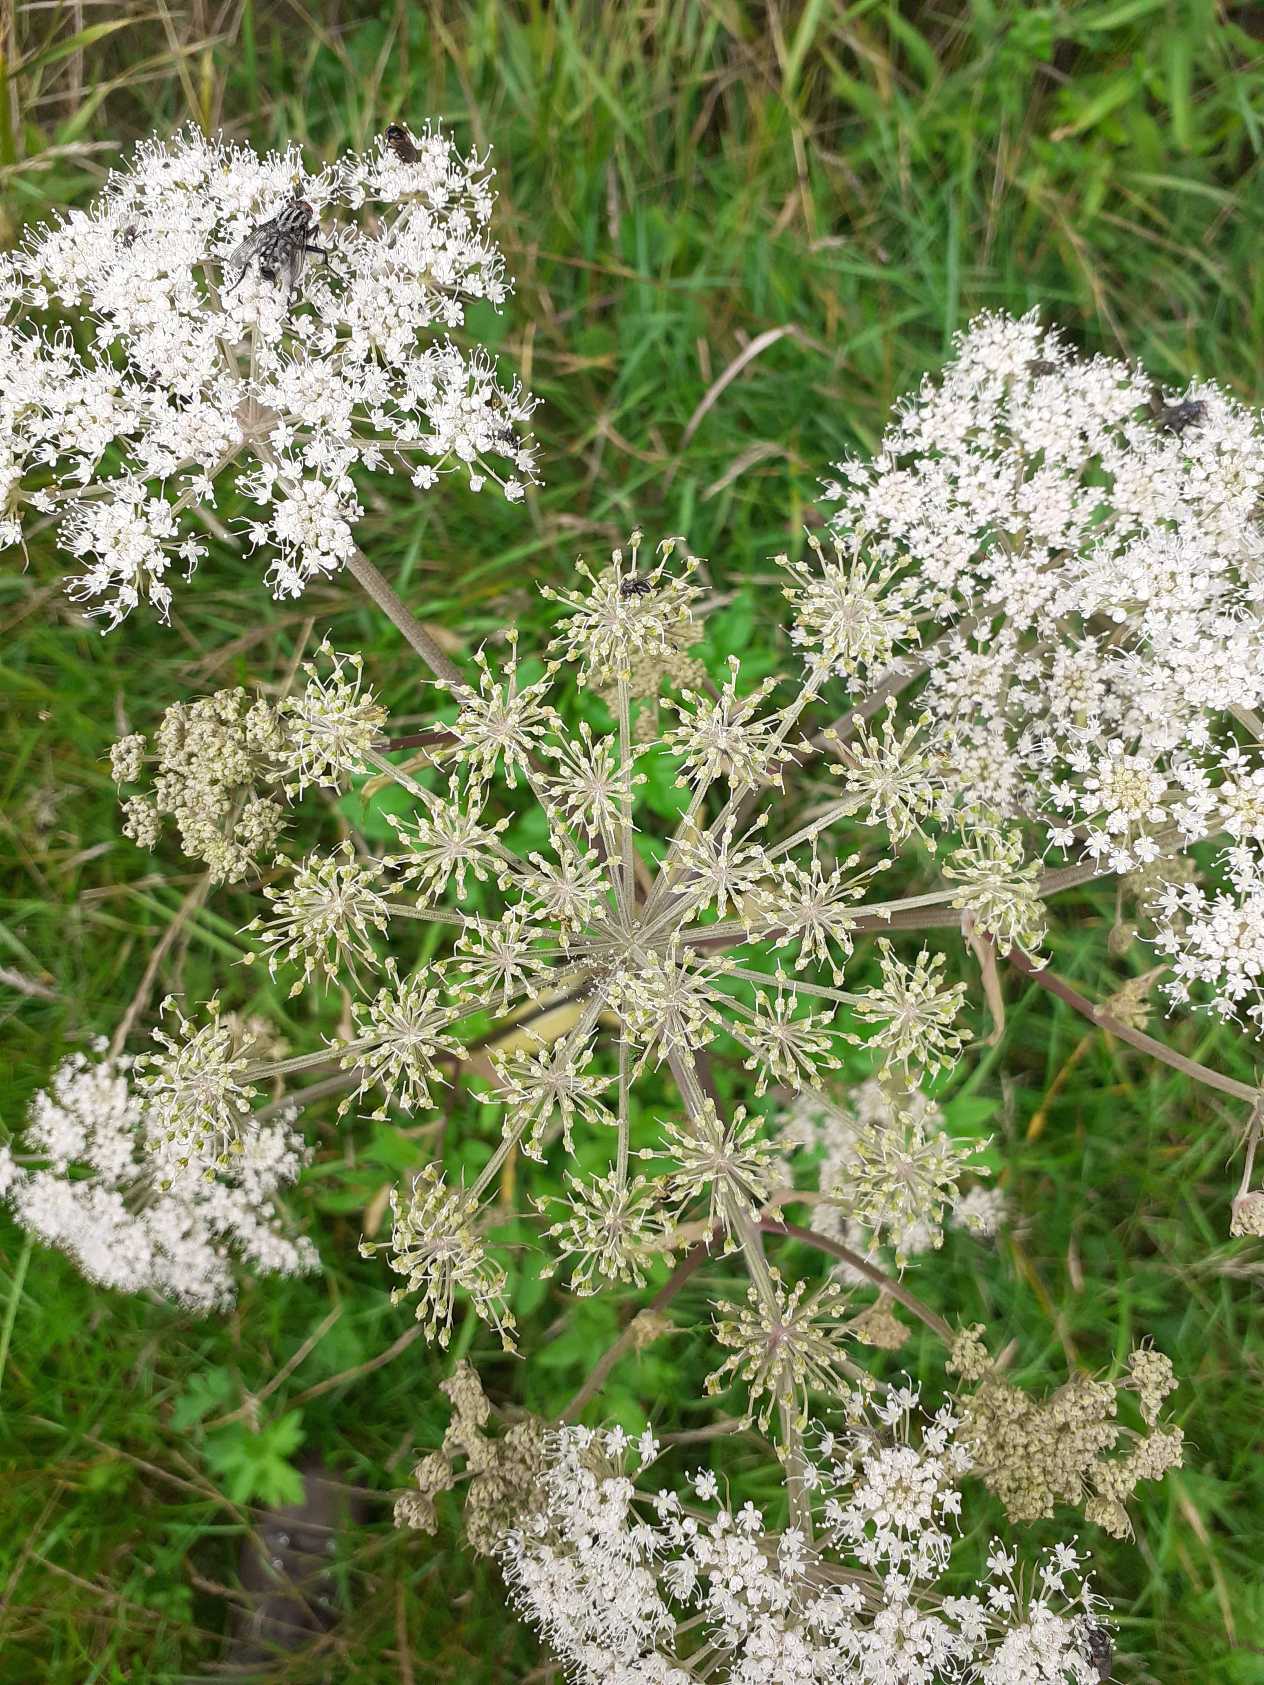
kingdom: Plantae
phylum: Tracheophyta
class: Magnoliopsida
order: Apiales
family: Apiaceae
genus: Angelica
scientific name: Angelica sylvestris
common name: Angelik
